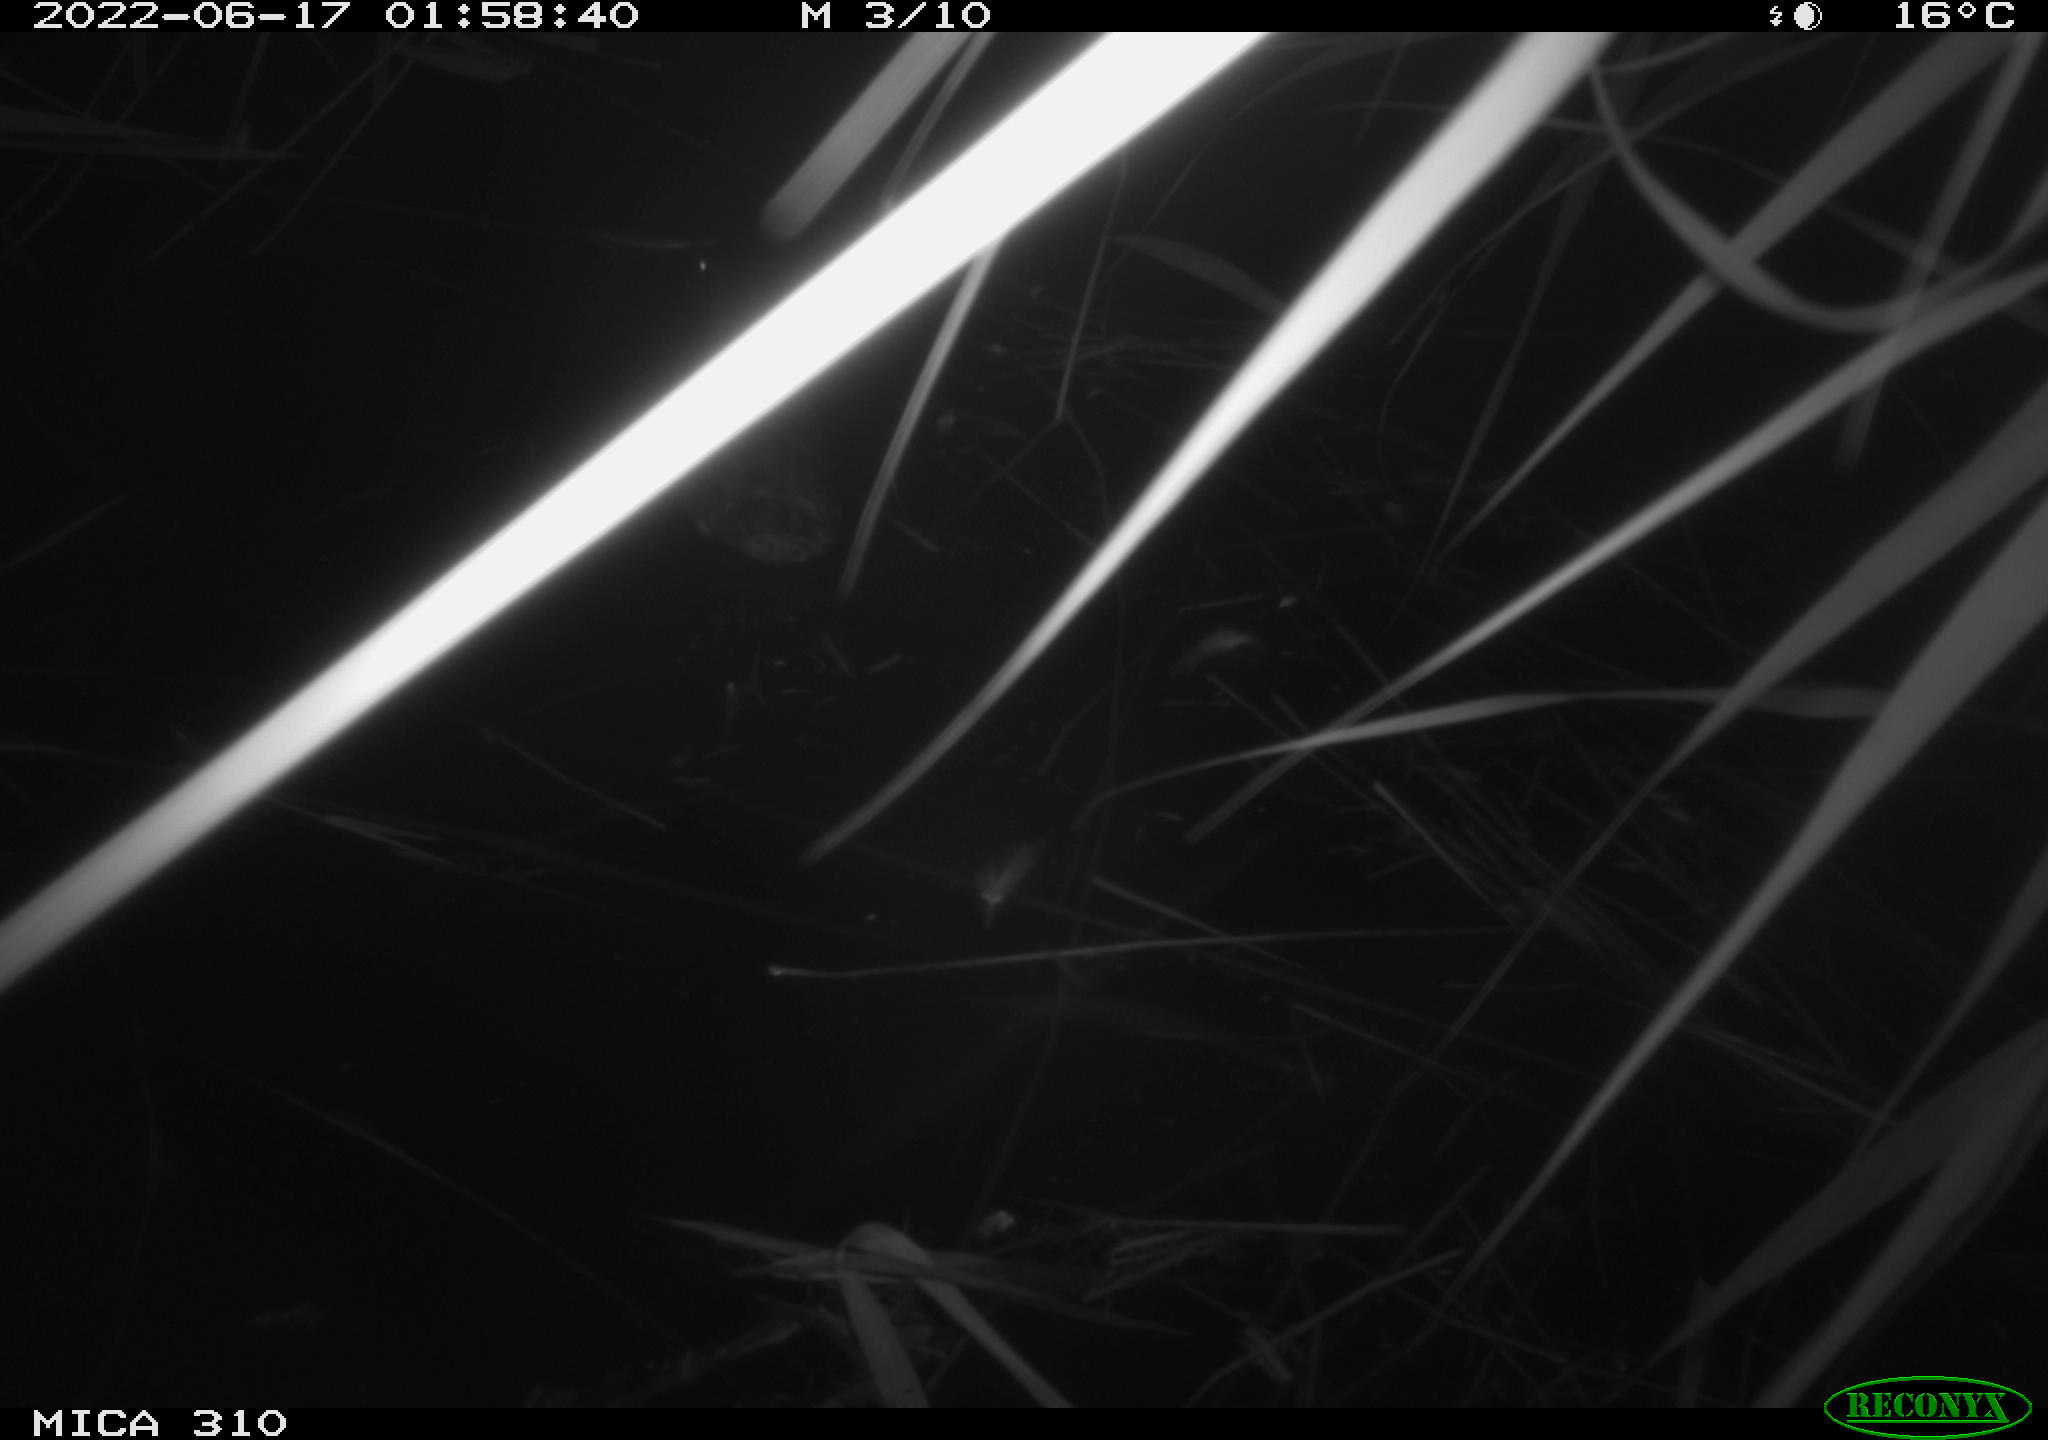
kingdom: Animalia
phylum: Chordata
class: Aves
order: Anseriformes
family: Anatidae
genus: Mareca
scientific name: Mareca strepera
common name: Gadwall
